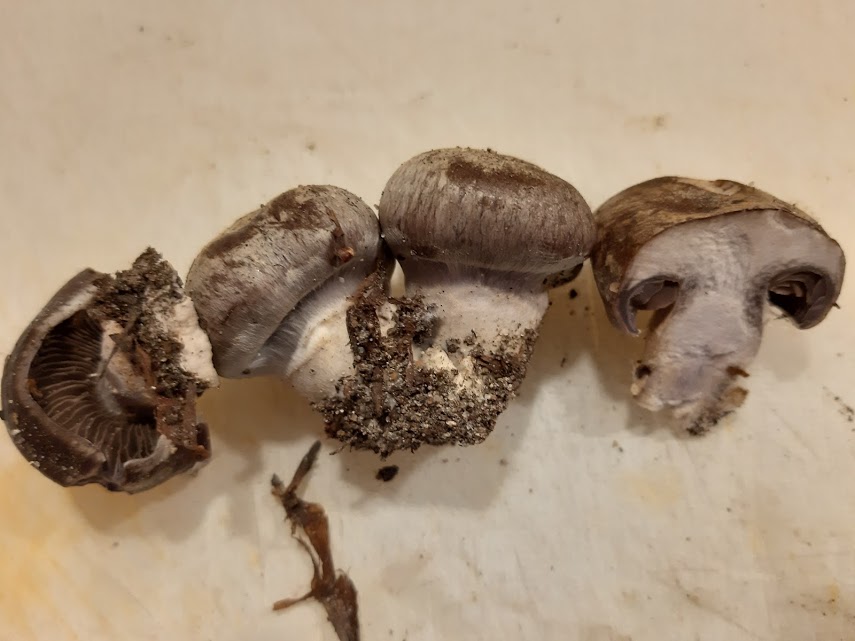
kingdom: Fungi
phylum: Basidiomycota
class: Agaricomycetes
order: Agaricales
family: Cortinariaceae
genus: Cortinarius
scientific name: Cortinarius
